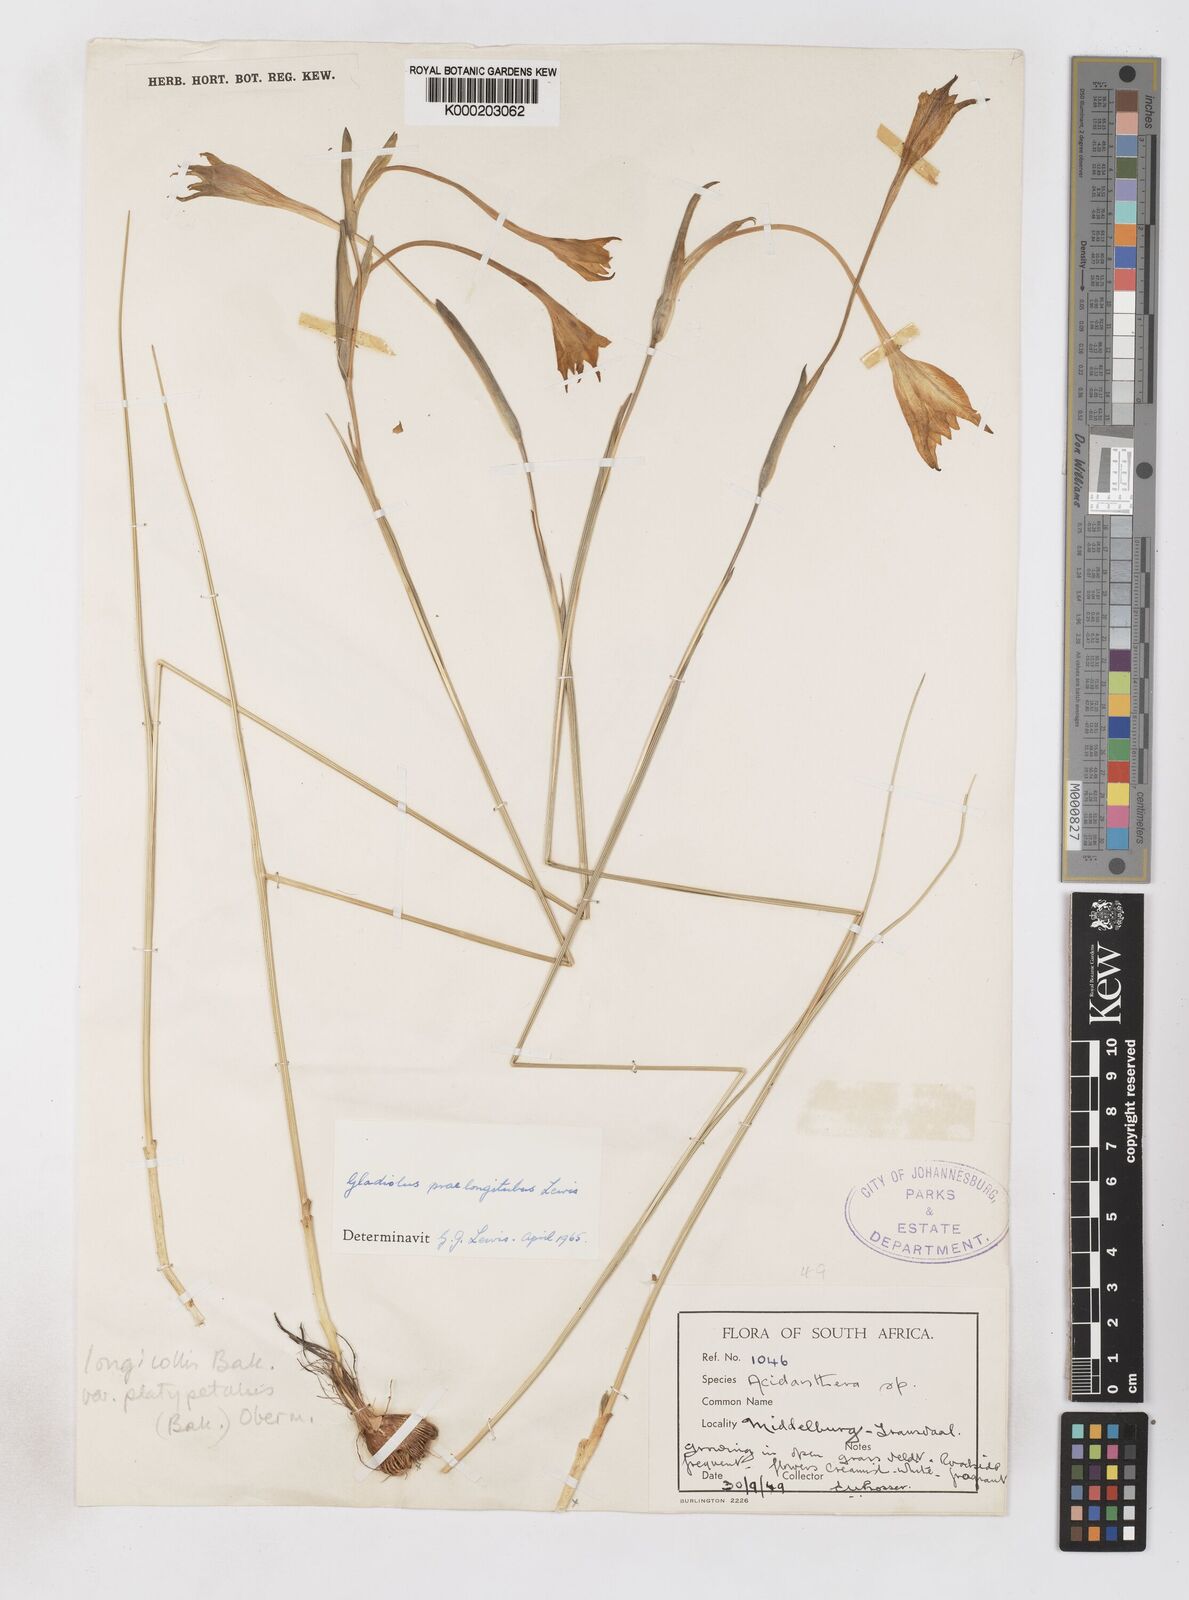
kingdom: Plantae
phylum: Tracheophyta
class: Liliopsida
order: Asparagales
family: Iridaceae
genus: Gladiolus
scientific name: Gladiolus longicollis
